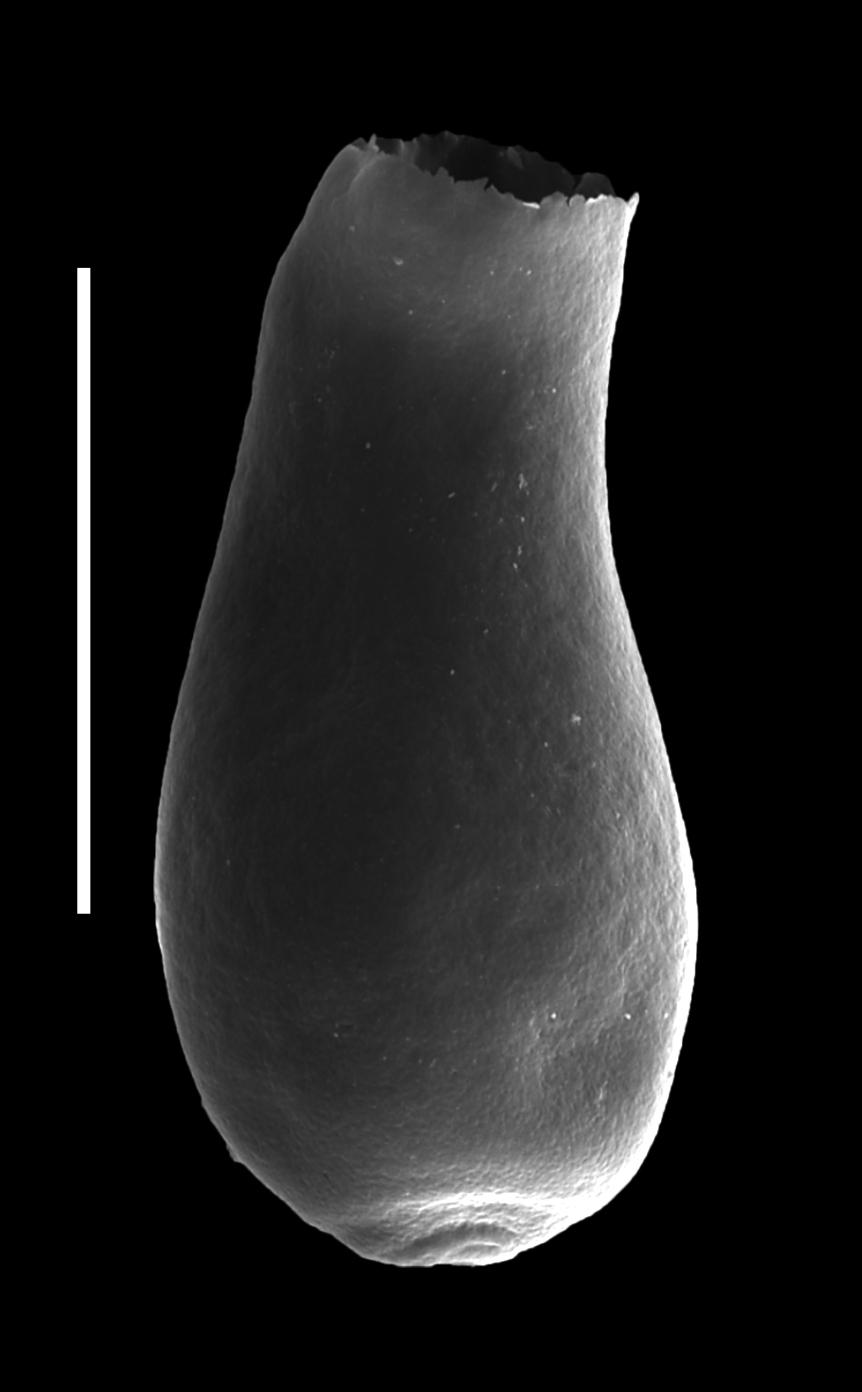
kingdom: Animalia
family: Lagenochitinidae
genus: Lagenochitina
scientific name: Lagenochitina
